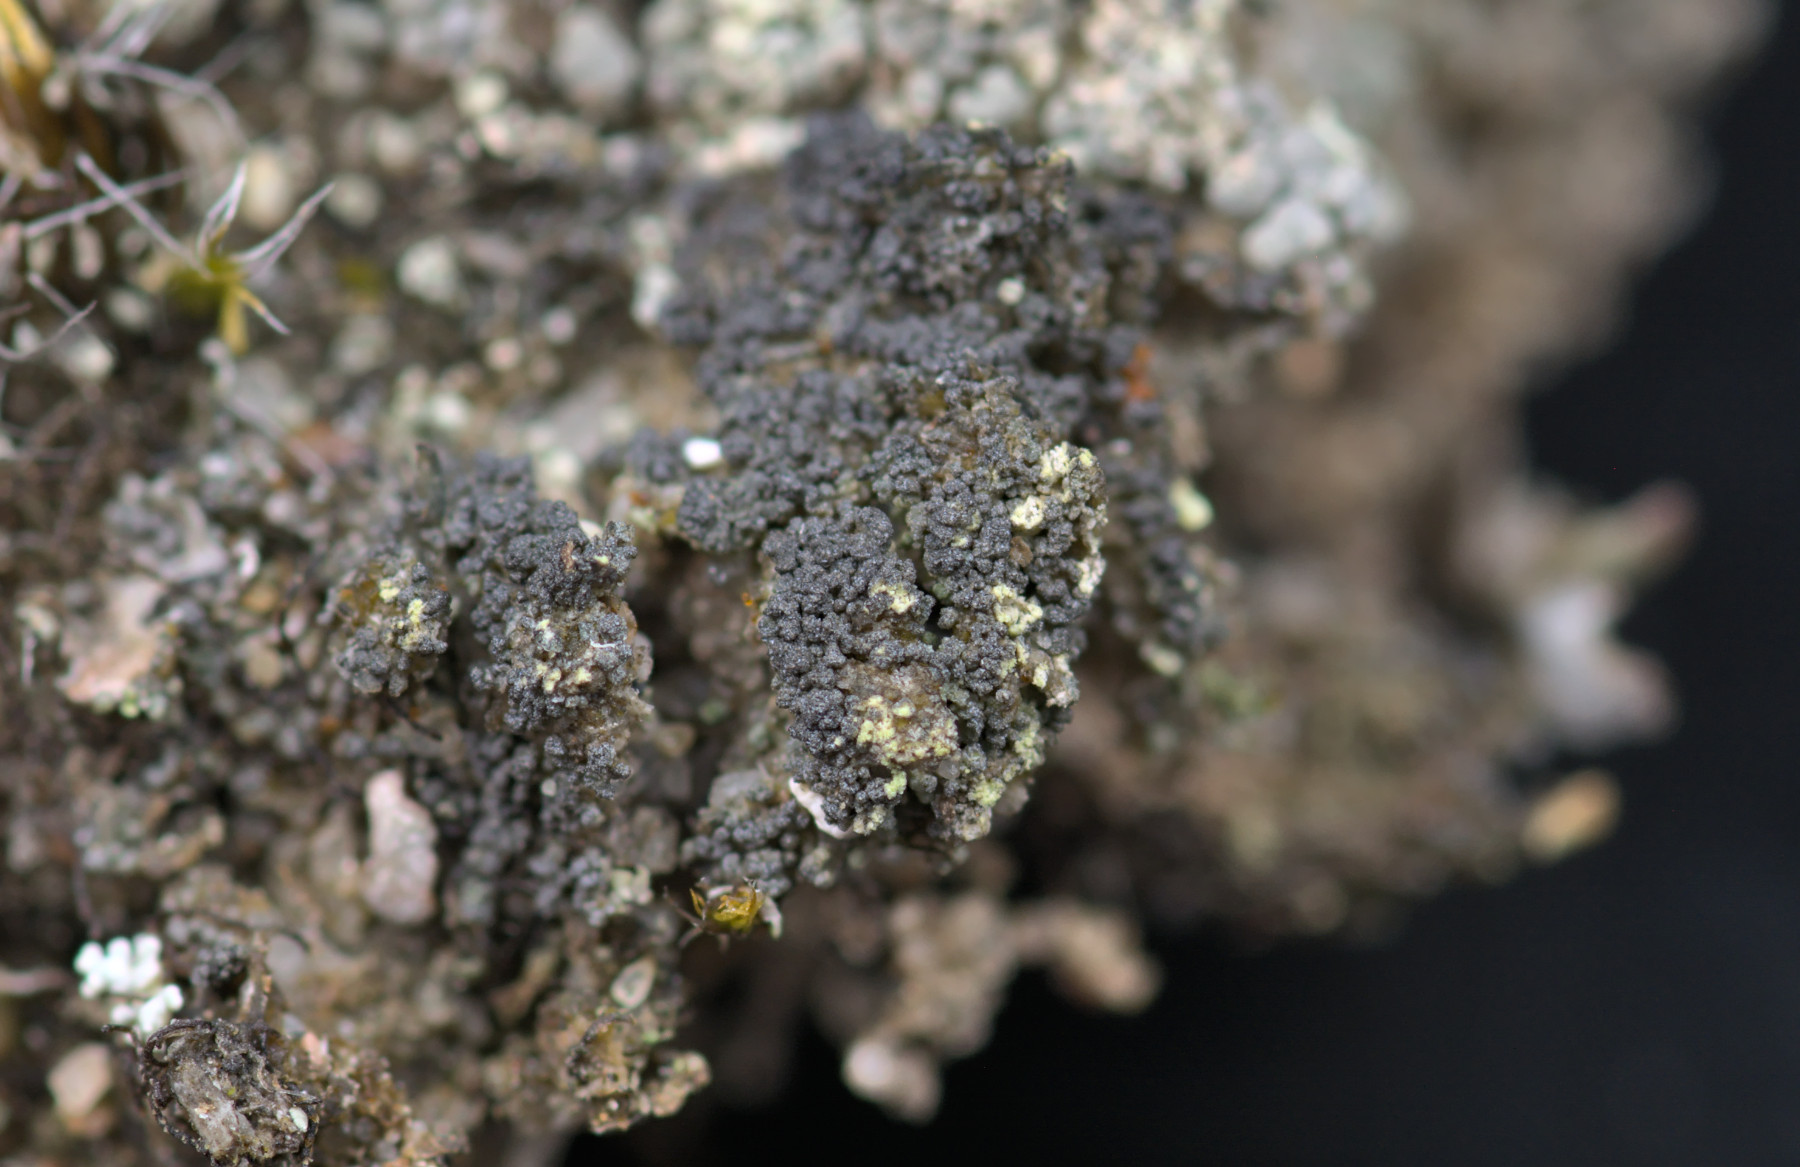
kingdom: Fungi
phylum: Ascomycota
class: Lecanoromycetes
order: Lecanorales
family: Byssolomataceae
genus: Micarea
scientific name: Micarea leprosula
